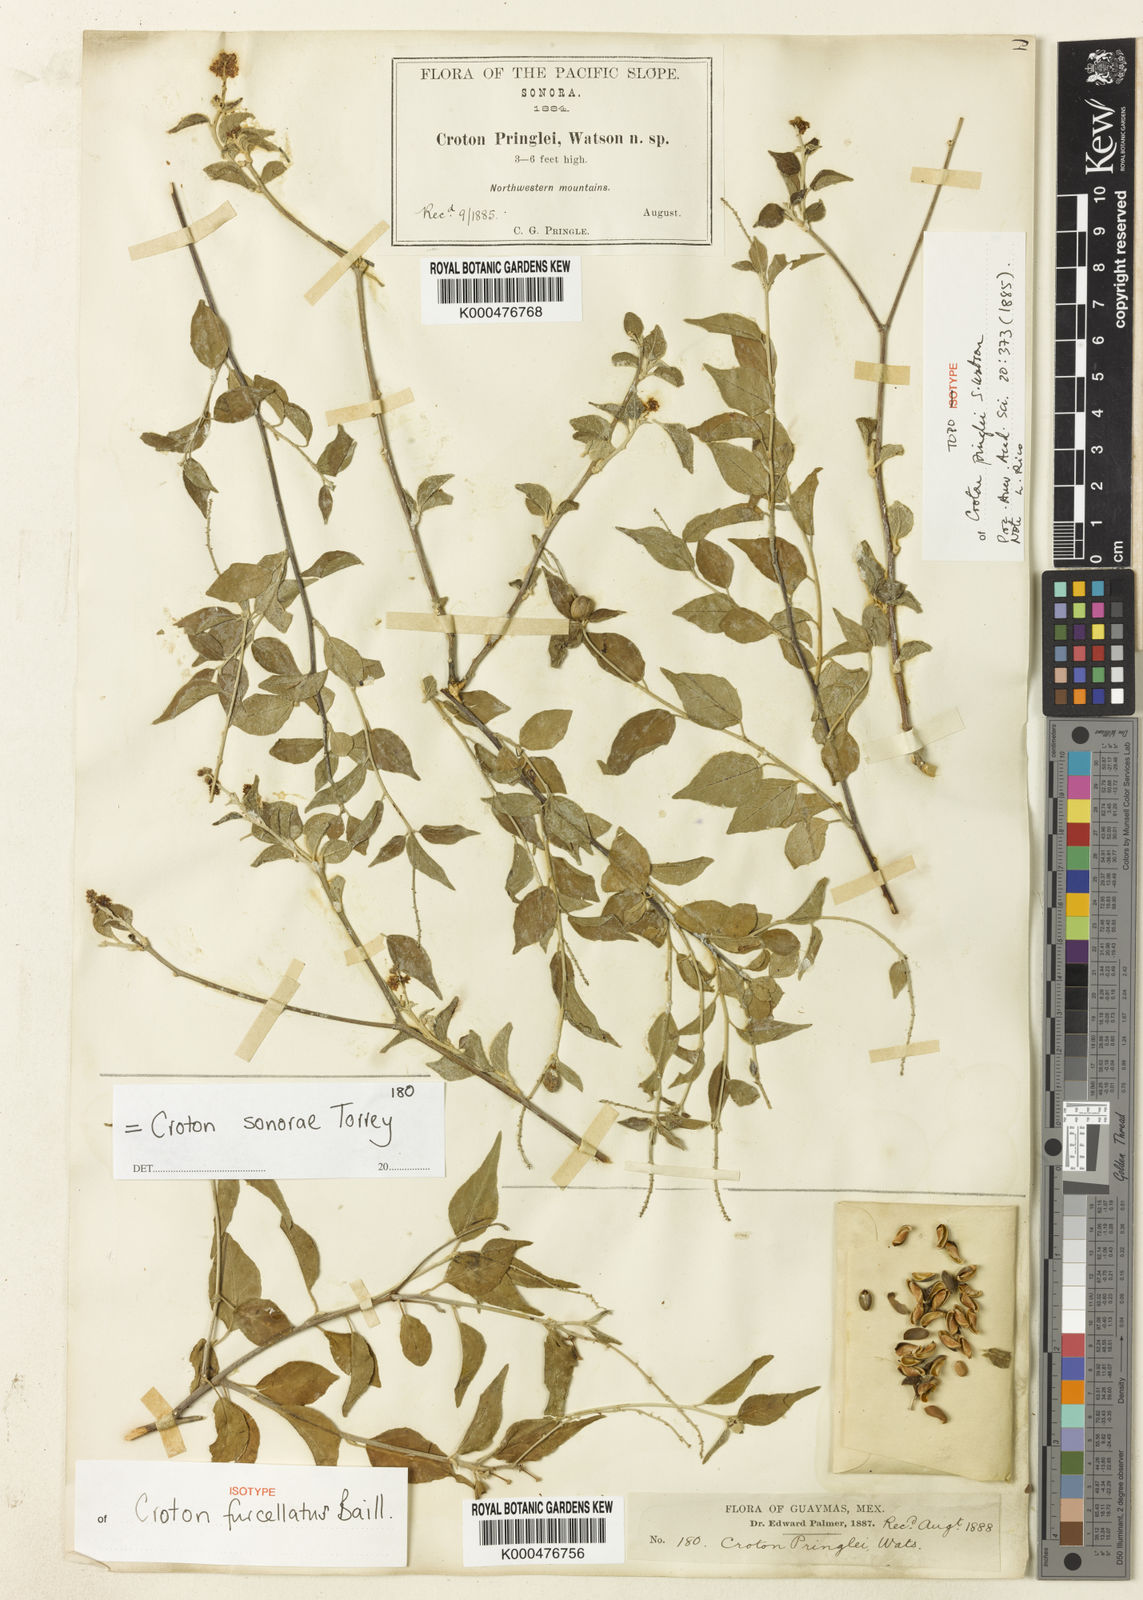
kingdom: Plantae
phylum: Tracheophyta
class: Magnoliopsida
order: Malpighiales
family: Euphorbiaceae
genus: Croton
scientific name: Croton sonorae
